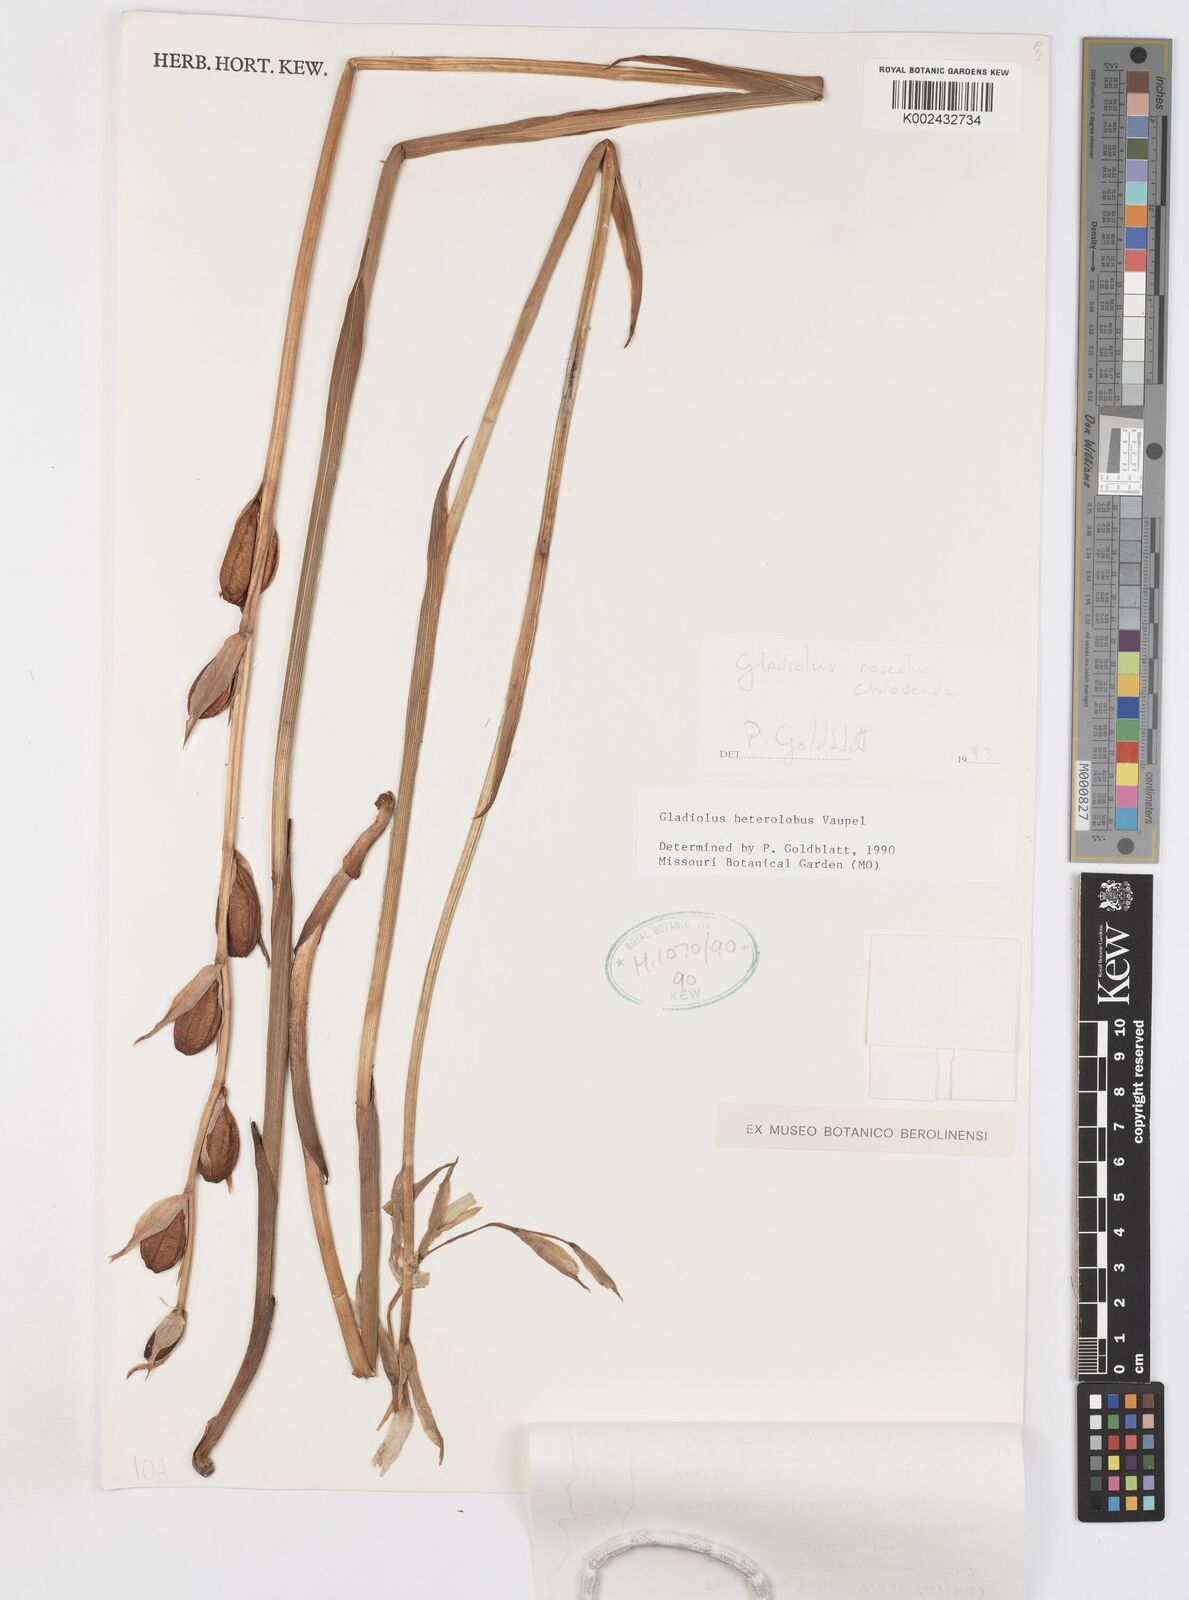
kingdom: Plantae
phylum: Tracheophyta
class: Liliopsida
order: Asparagales
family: Iridaceae
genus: Gladiolus
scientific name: Gladiolus roseolus
